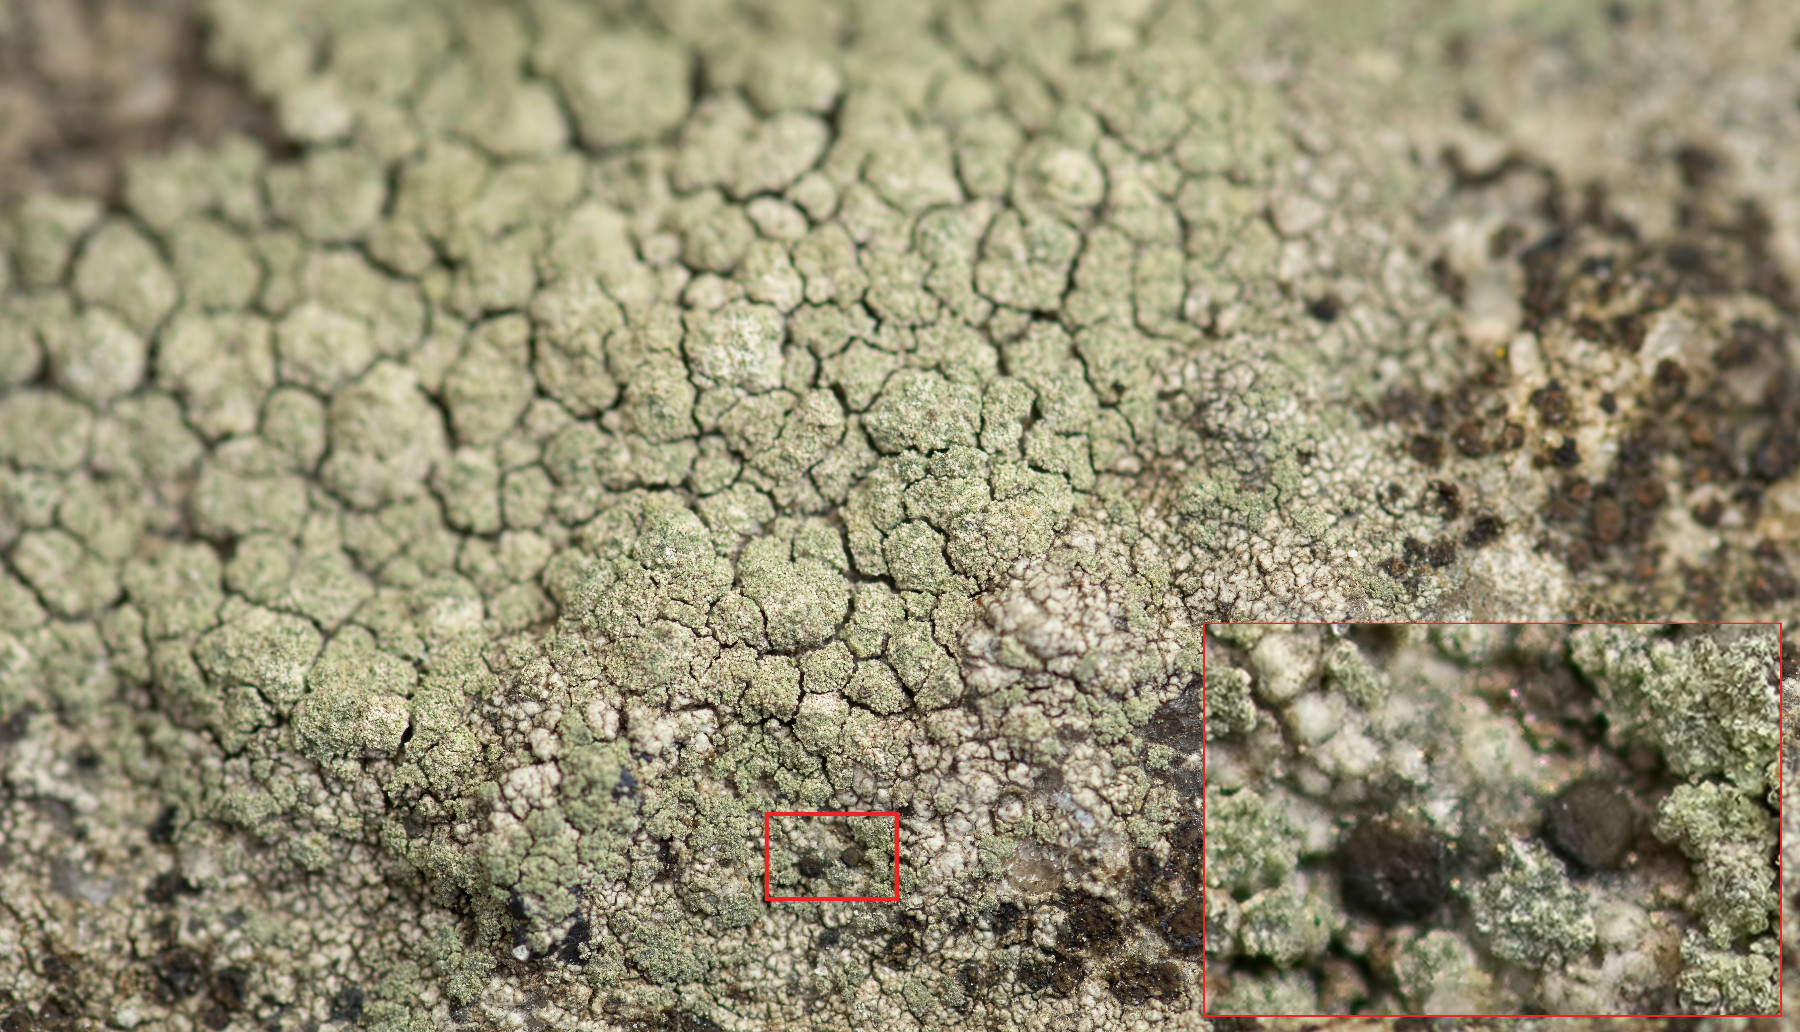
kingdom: Fungi
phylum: Ascomycota
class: Lecanoromycetes
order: Lecanorales
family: Lecanoraceae
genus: Lecidella
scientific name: Lecidella scabra
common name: skurvet skivelav
